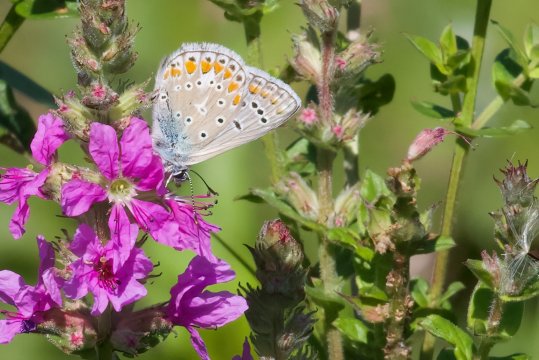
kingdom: Animalia
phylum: Arthropoda
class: Insecta
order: Lepidoptera
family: Lycaenidae
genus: Polyommatus
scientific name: Polyommatus icarus
